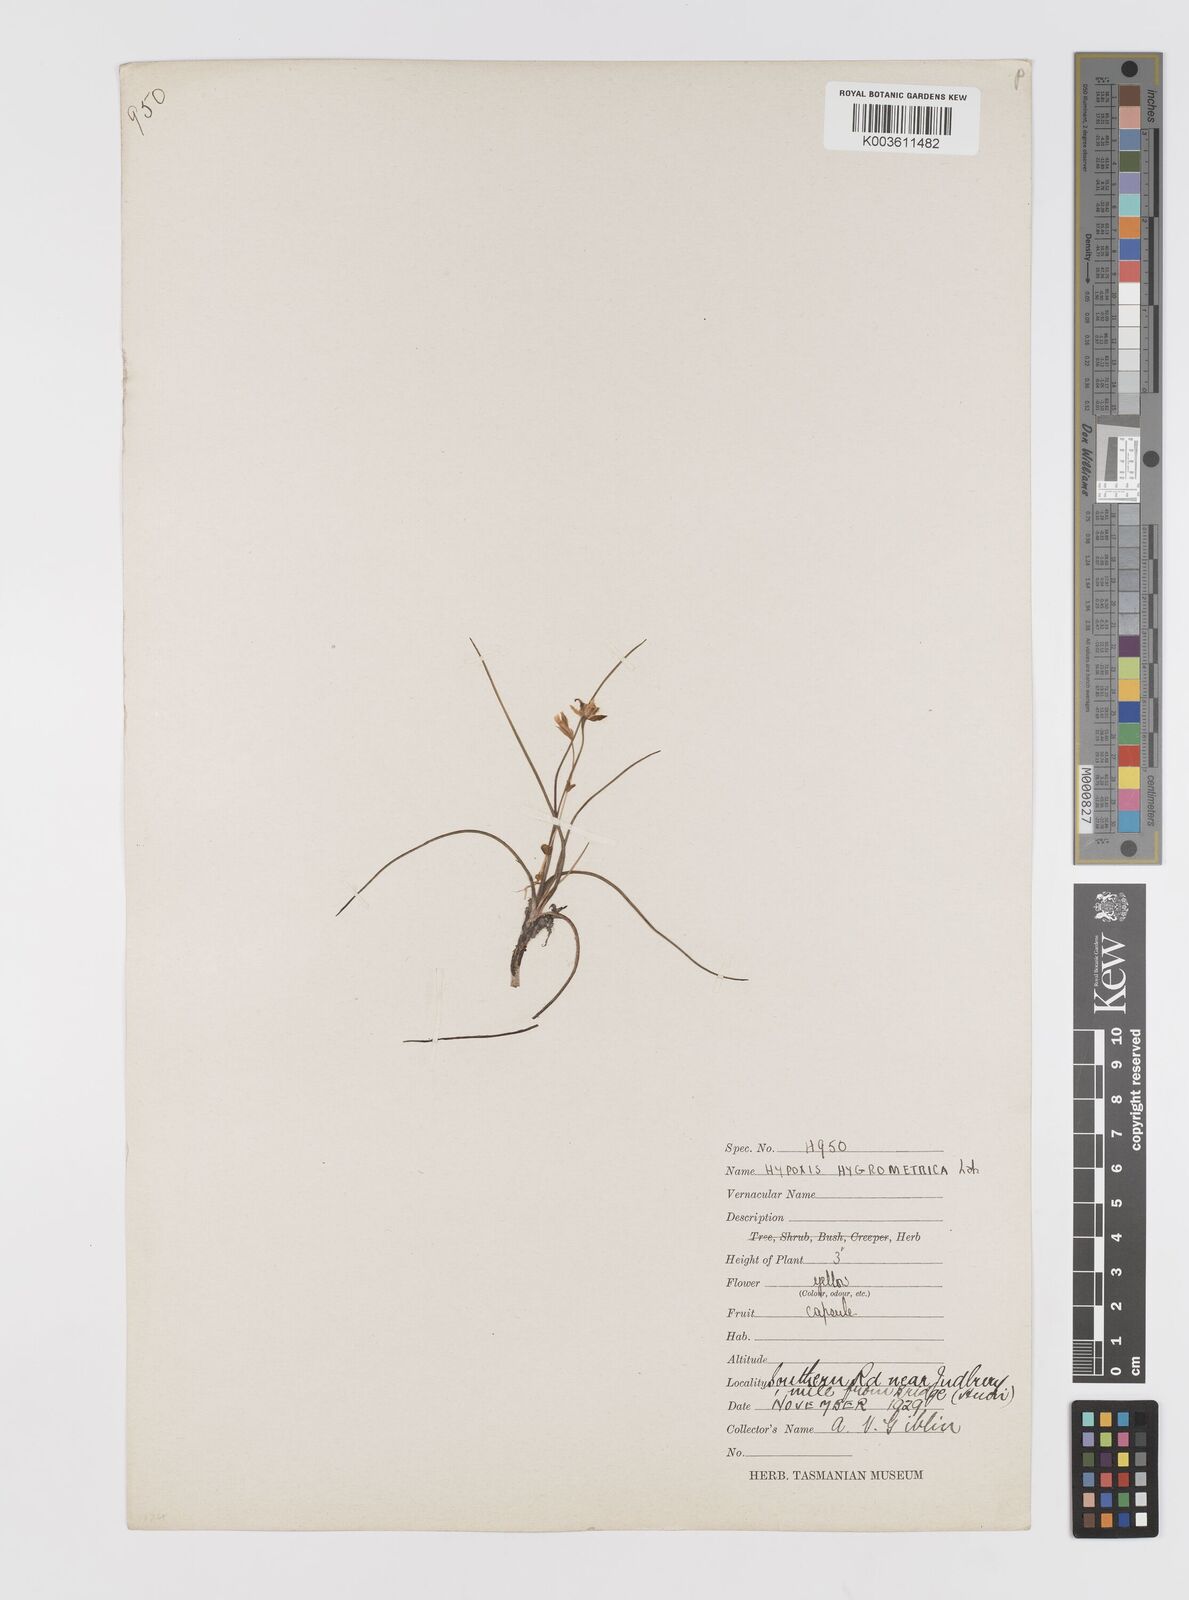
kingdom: Plantae
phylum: Tracheophyta
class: Liliopsida
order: Asparagales
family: Hypoxidaceae
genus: Hypoxis
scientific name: Hypoxis hygrometrica
